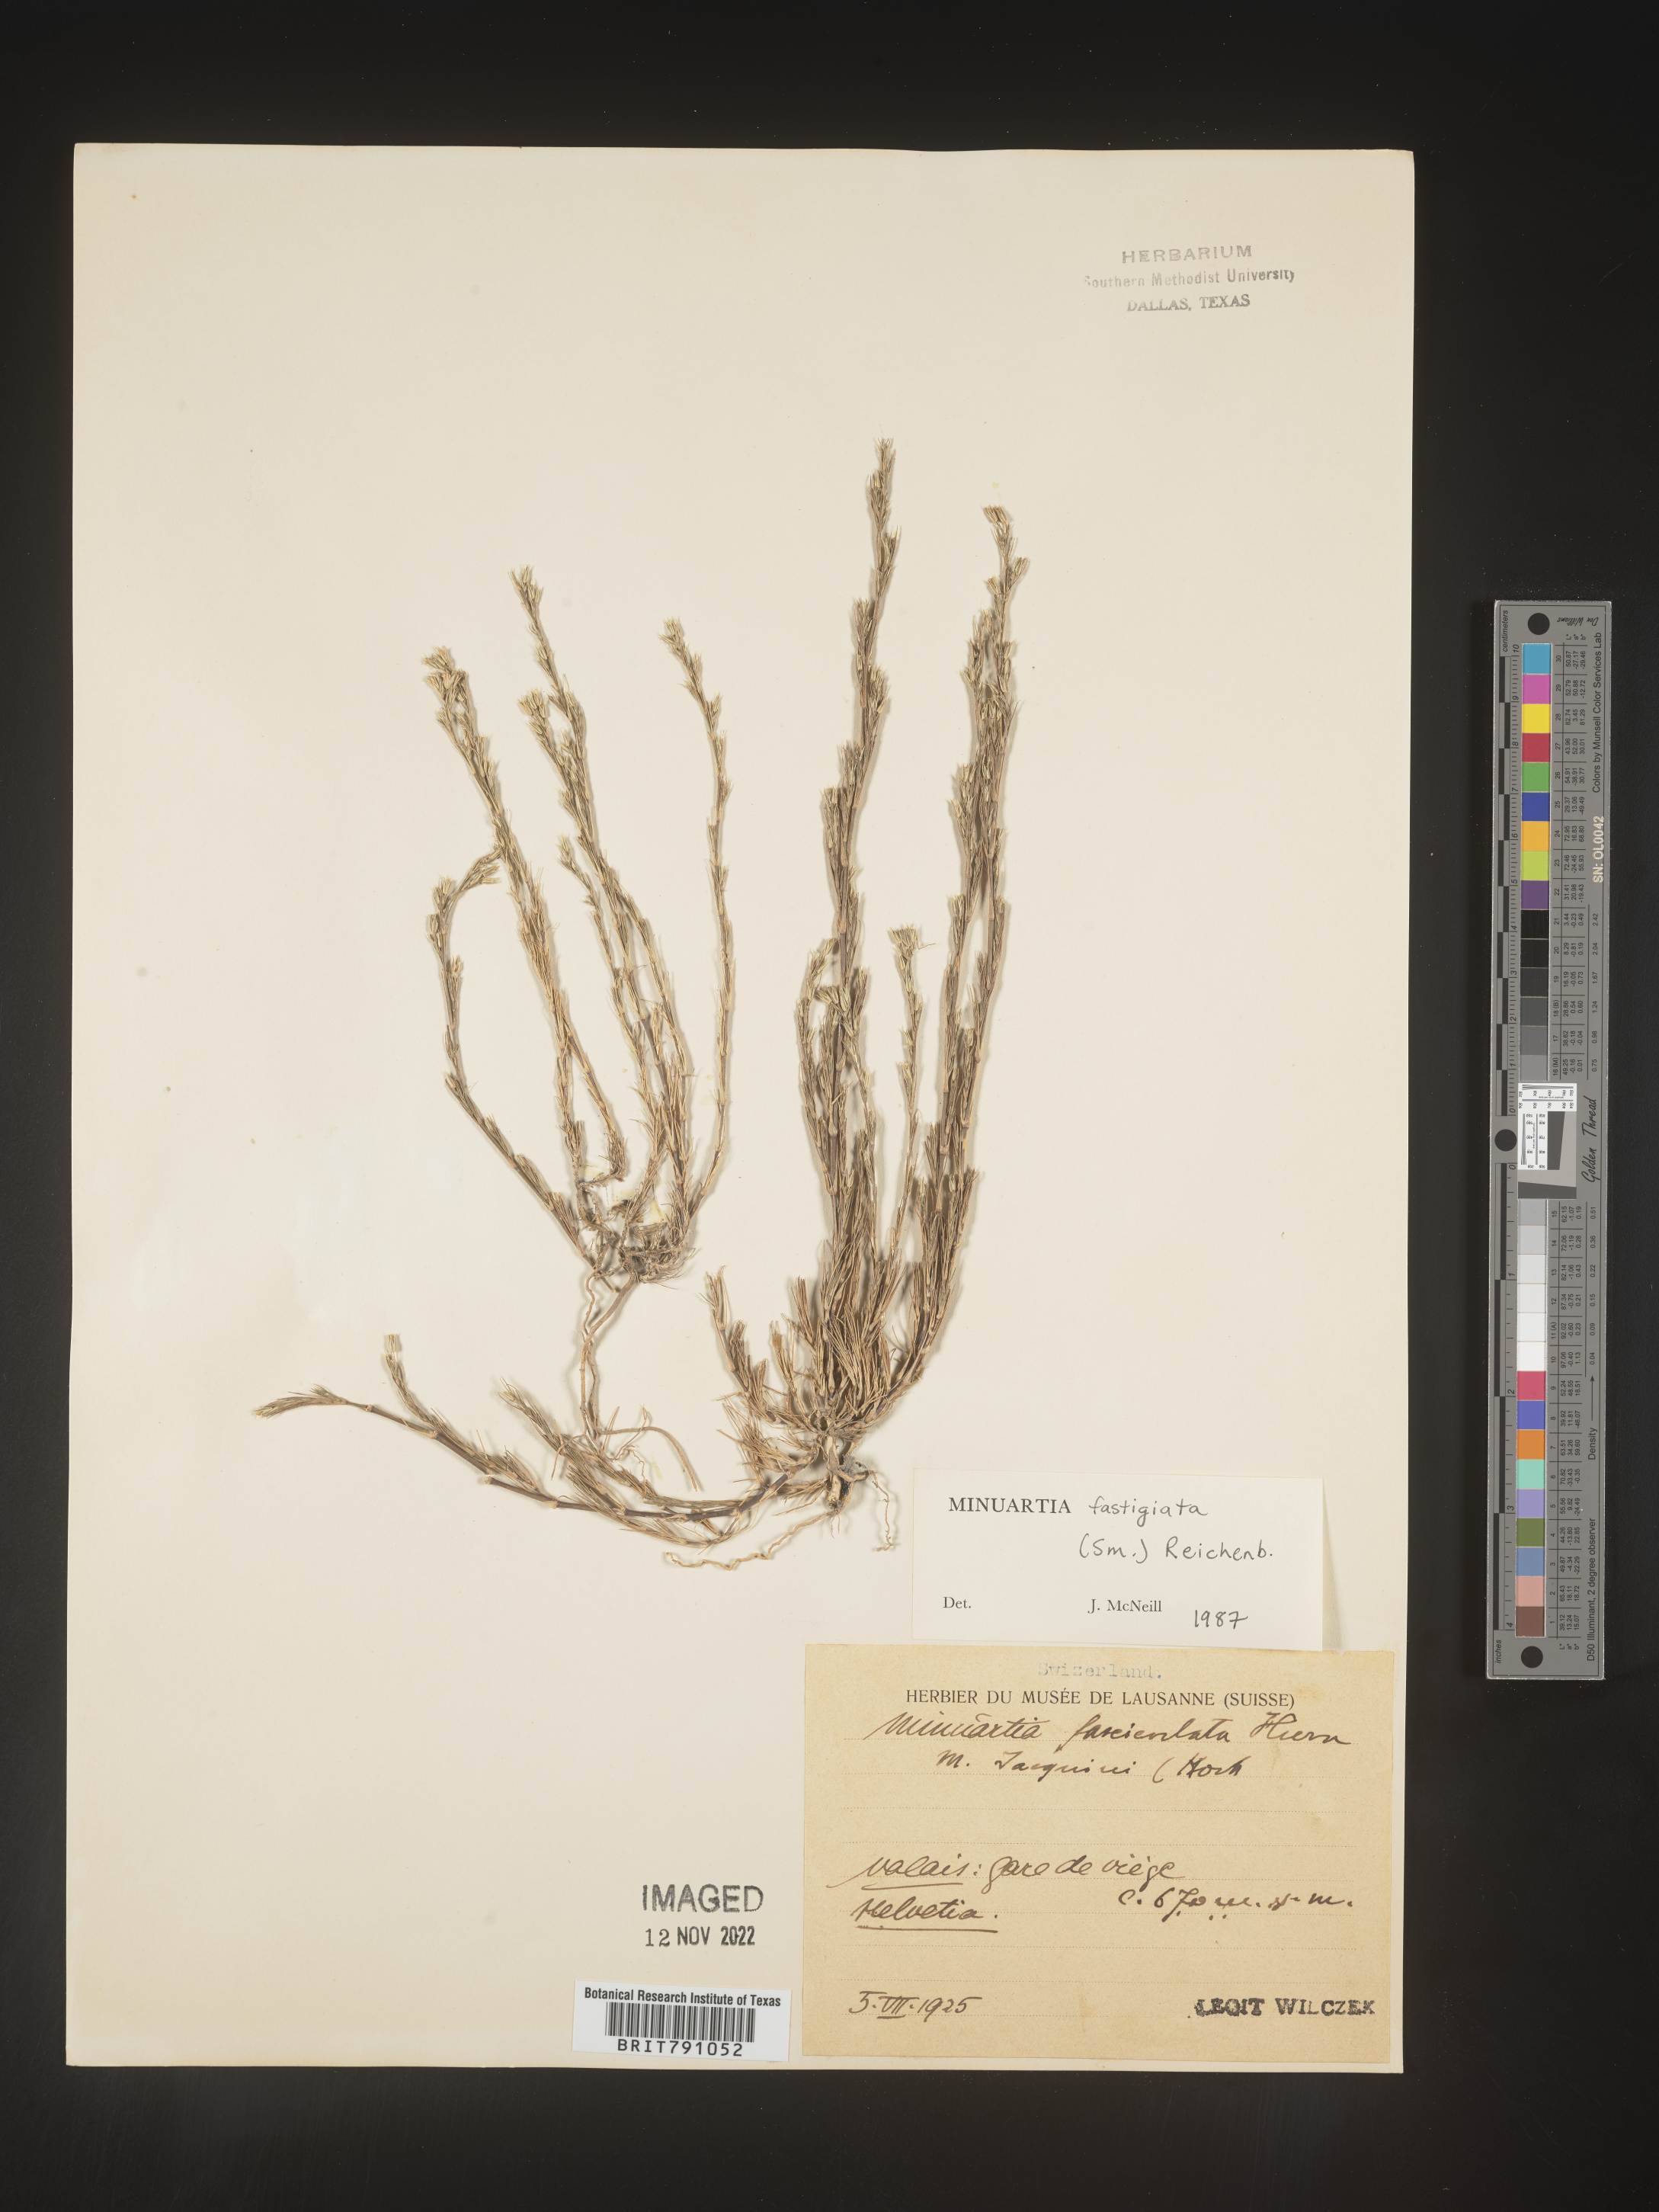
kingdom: Plantae
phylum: Tracheophyta
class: Magnoliopsida
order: Caryophyllales
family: Caryophyllaceae
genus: Minuartia
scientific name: Minuartia
